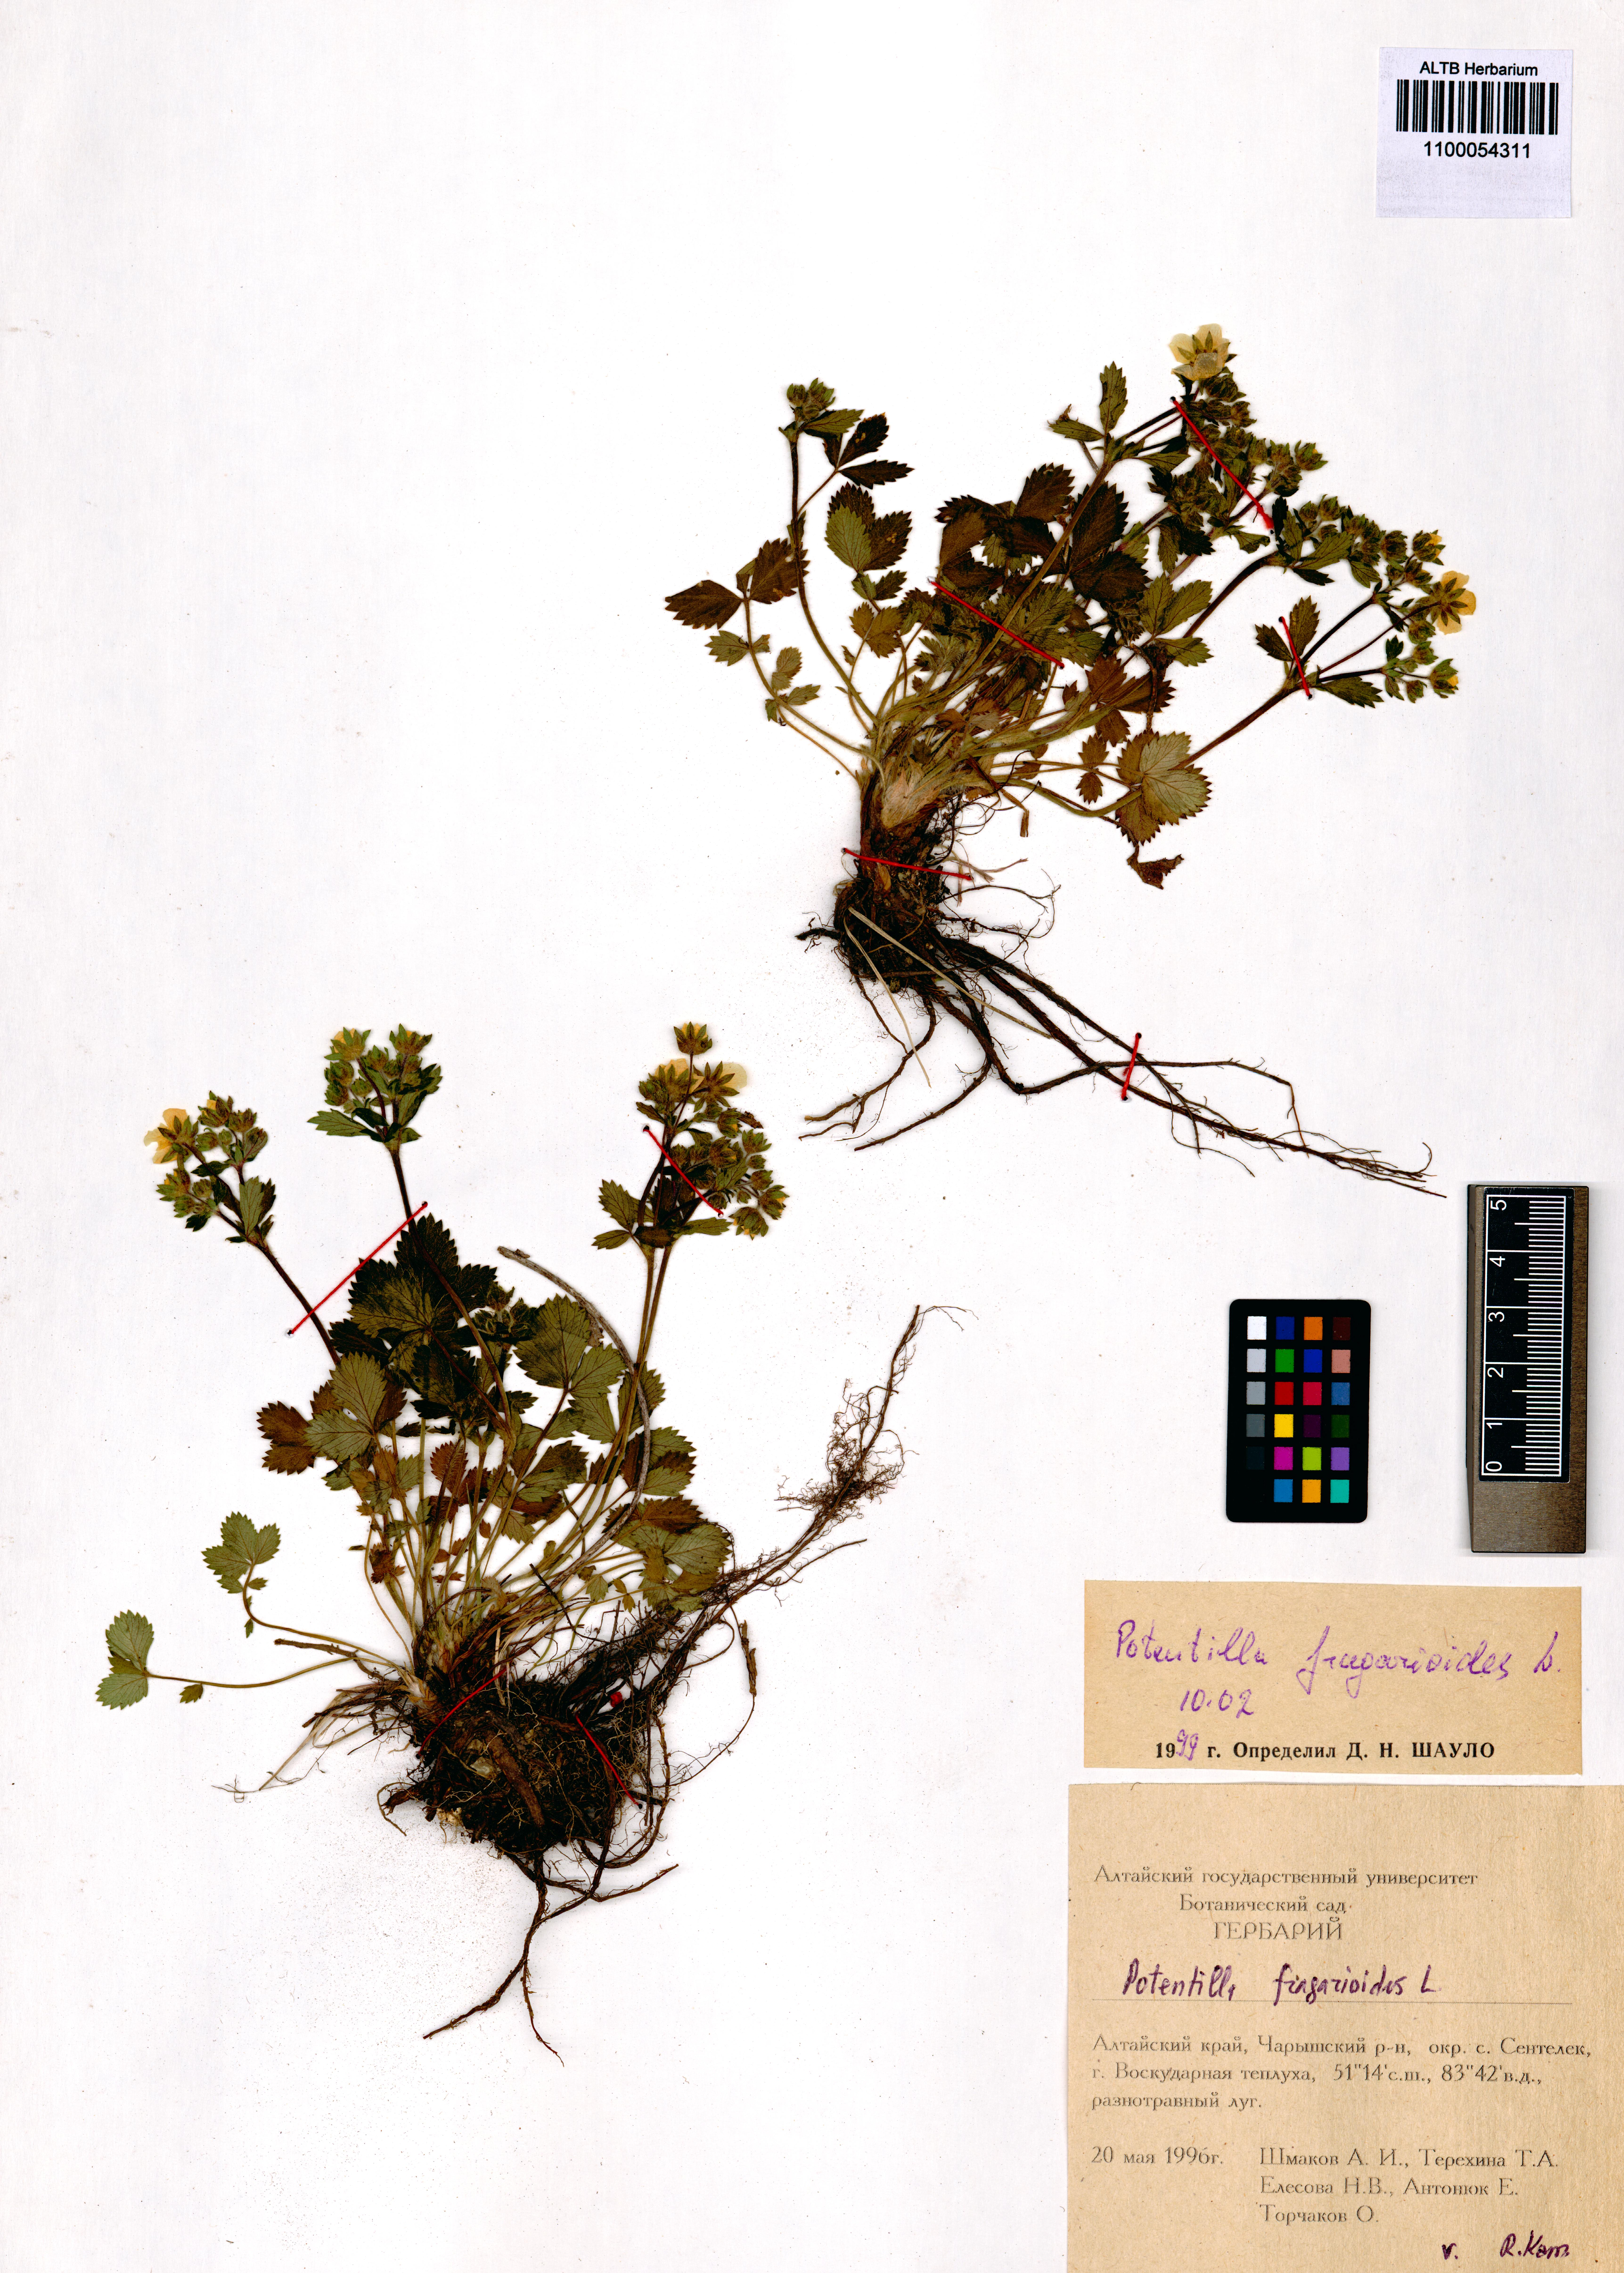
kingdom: Plantae
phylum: Tracheophyta
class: Magnoliopsida
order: Rosales
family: Rosaceae
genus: Potentilla
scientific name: Potentilla fragarioides
